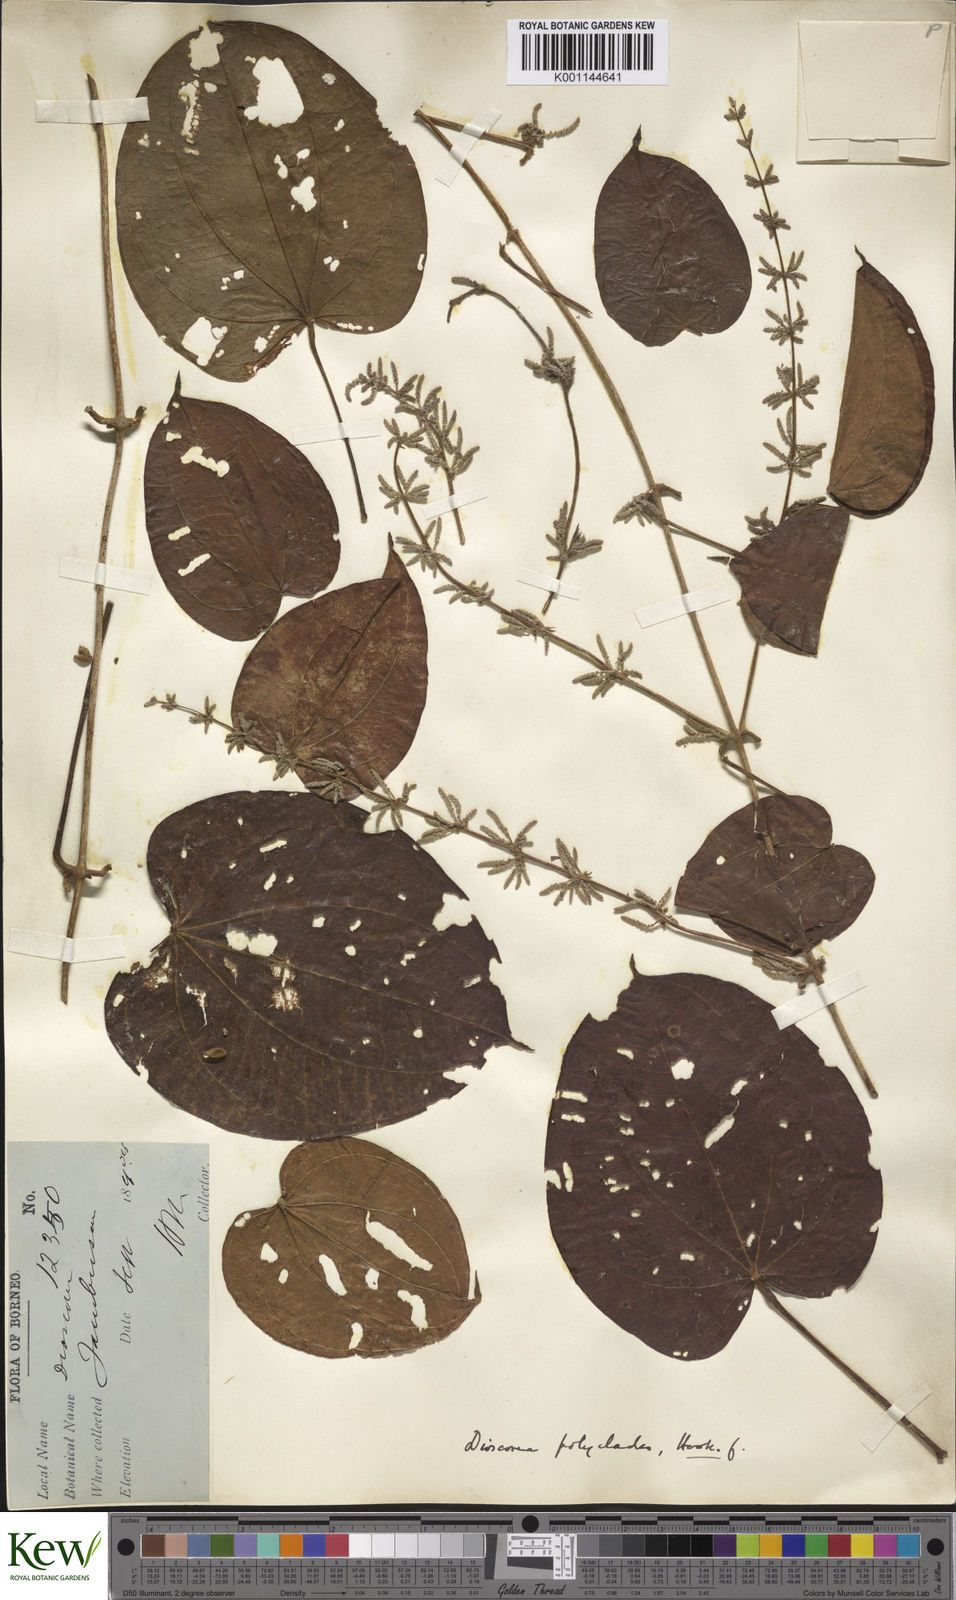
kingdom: Plantae
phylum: Tracheophyta
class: Liliopsida
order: Dioscoreales
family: Dioscoreaceae
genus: Dioscorea
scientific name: Dioscorea polyclados
